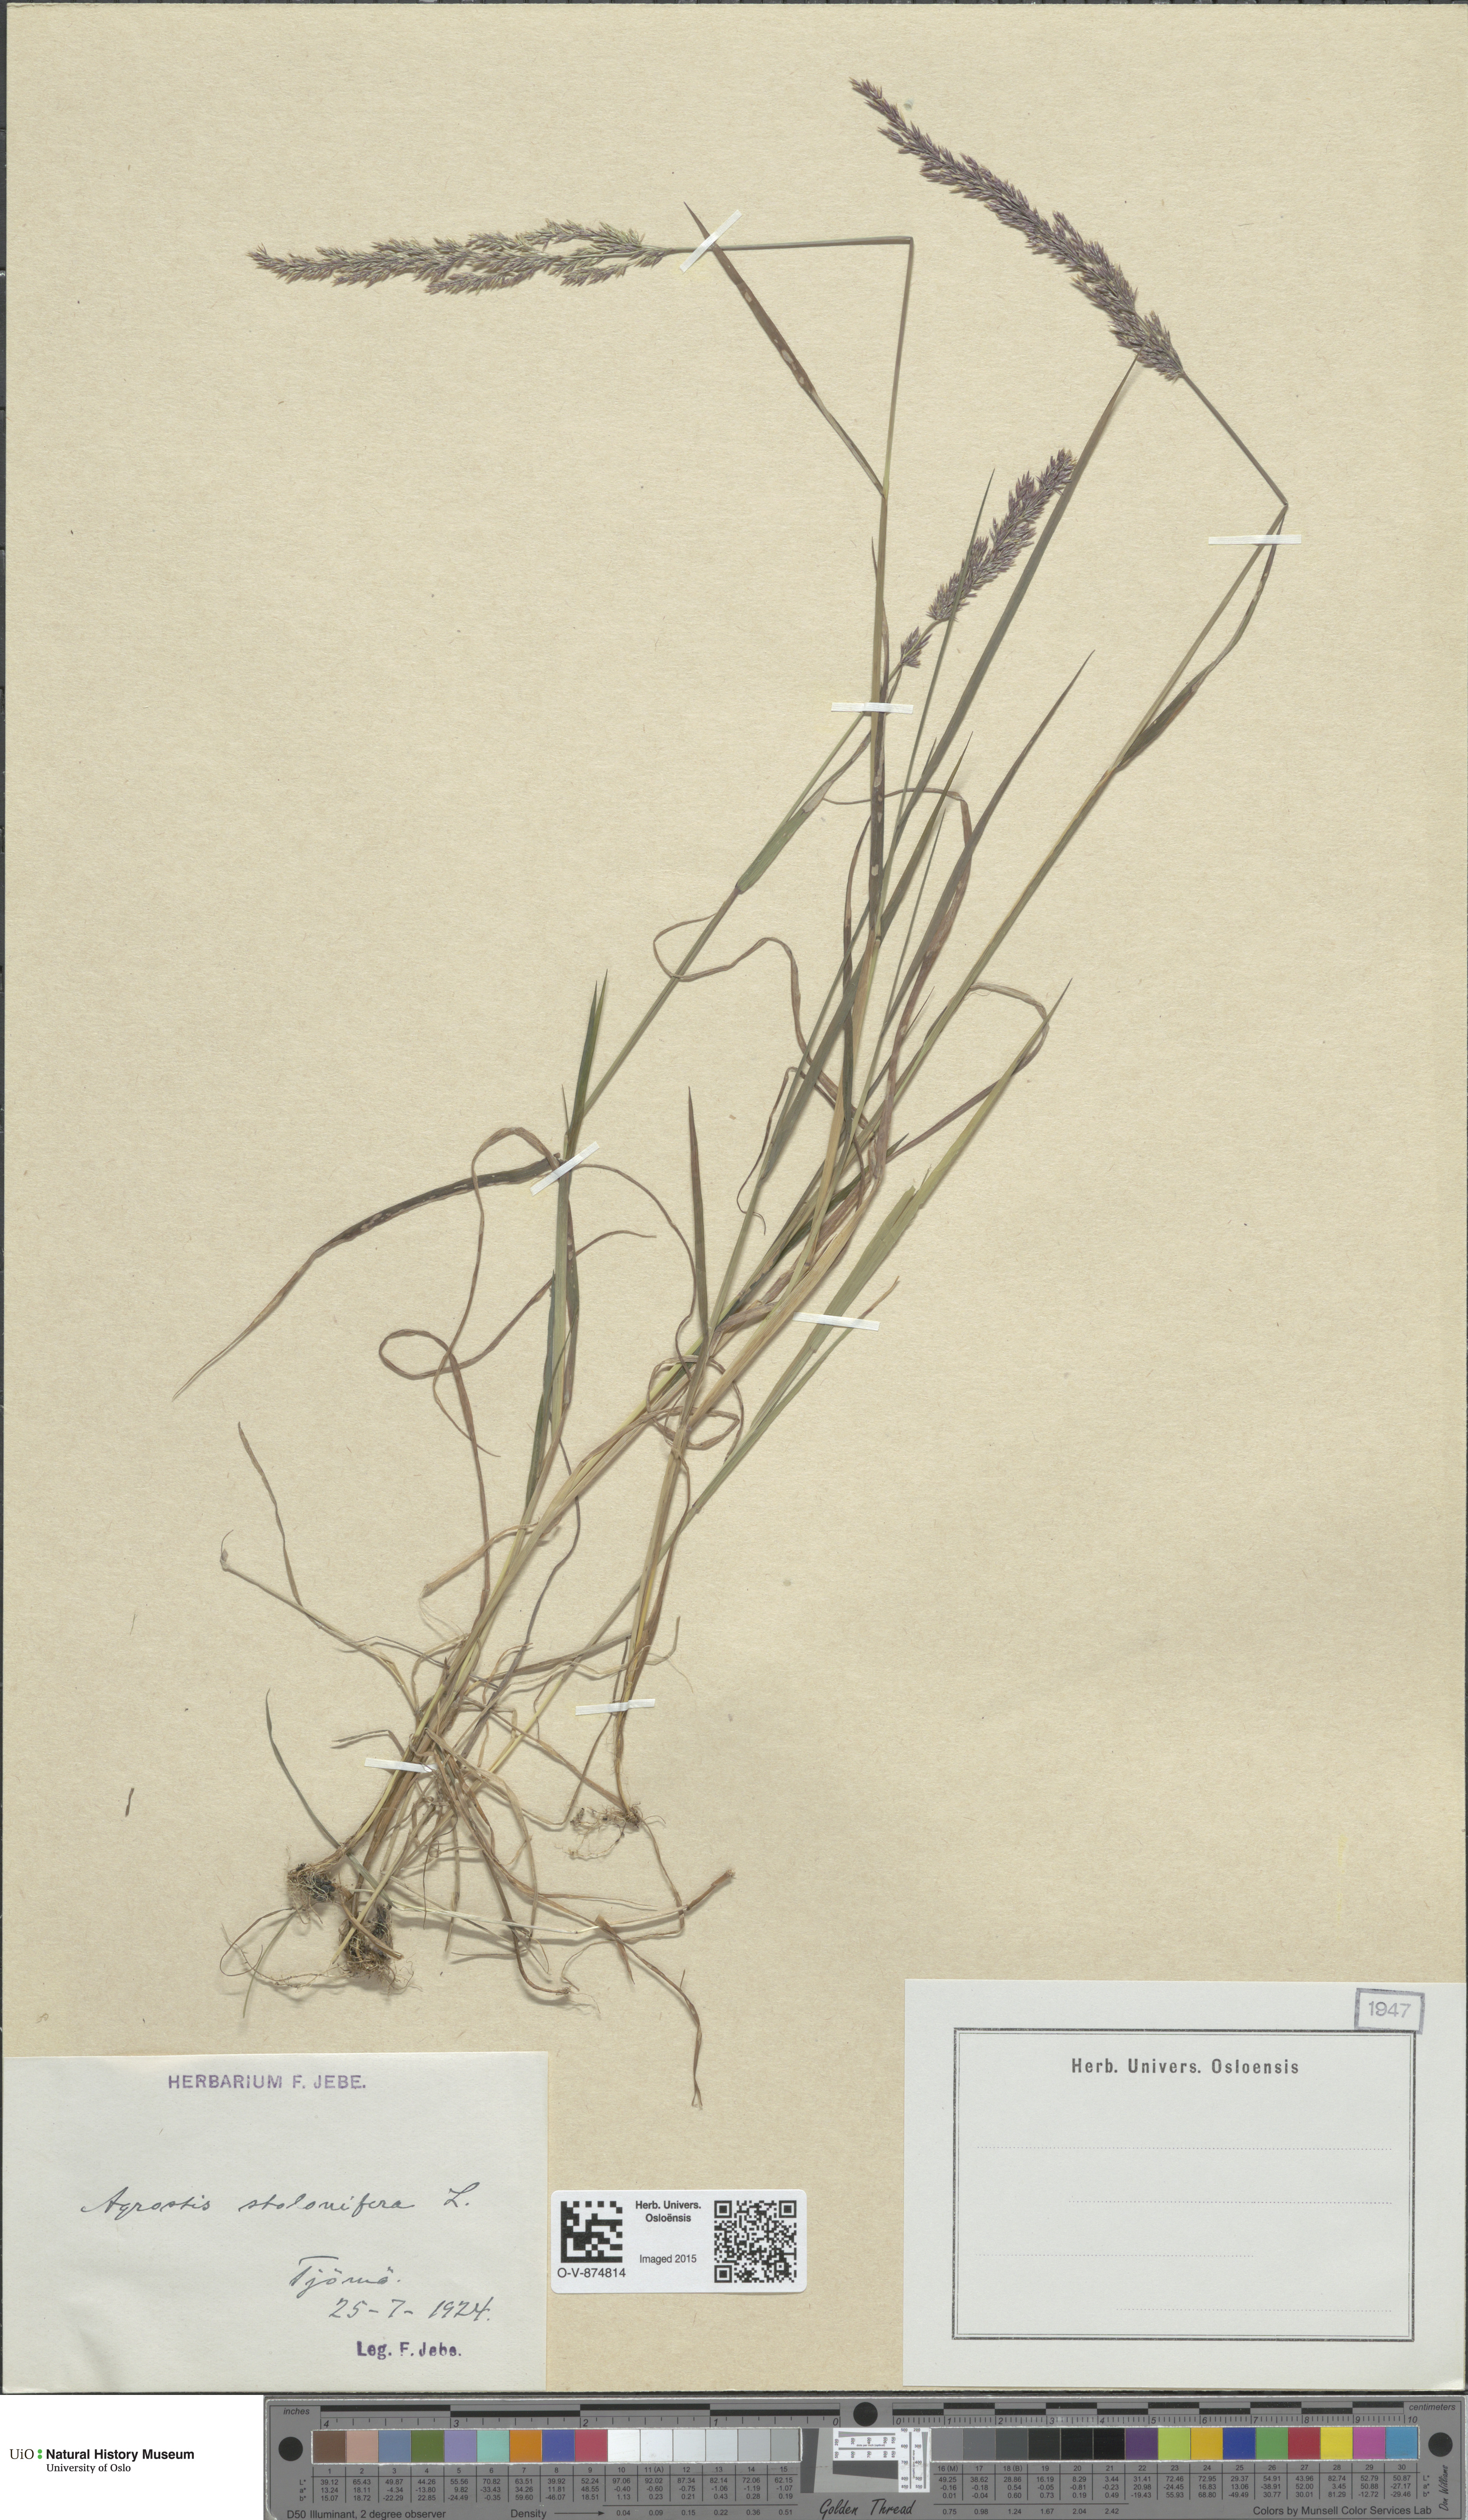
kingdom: Plantae
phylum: Tracheophyta
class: Liliopsida
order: Poales
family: Poaceae
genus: Agrostis
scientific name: Agrostis stolonifera
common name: Creeping bentgrass
